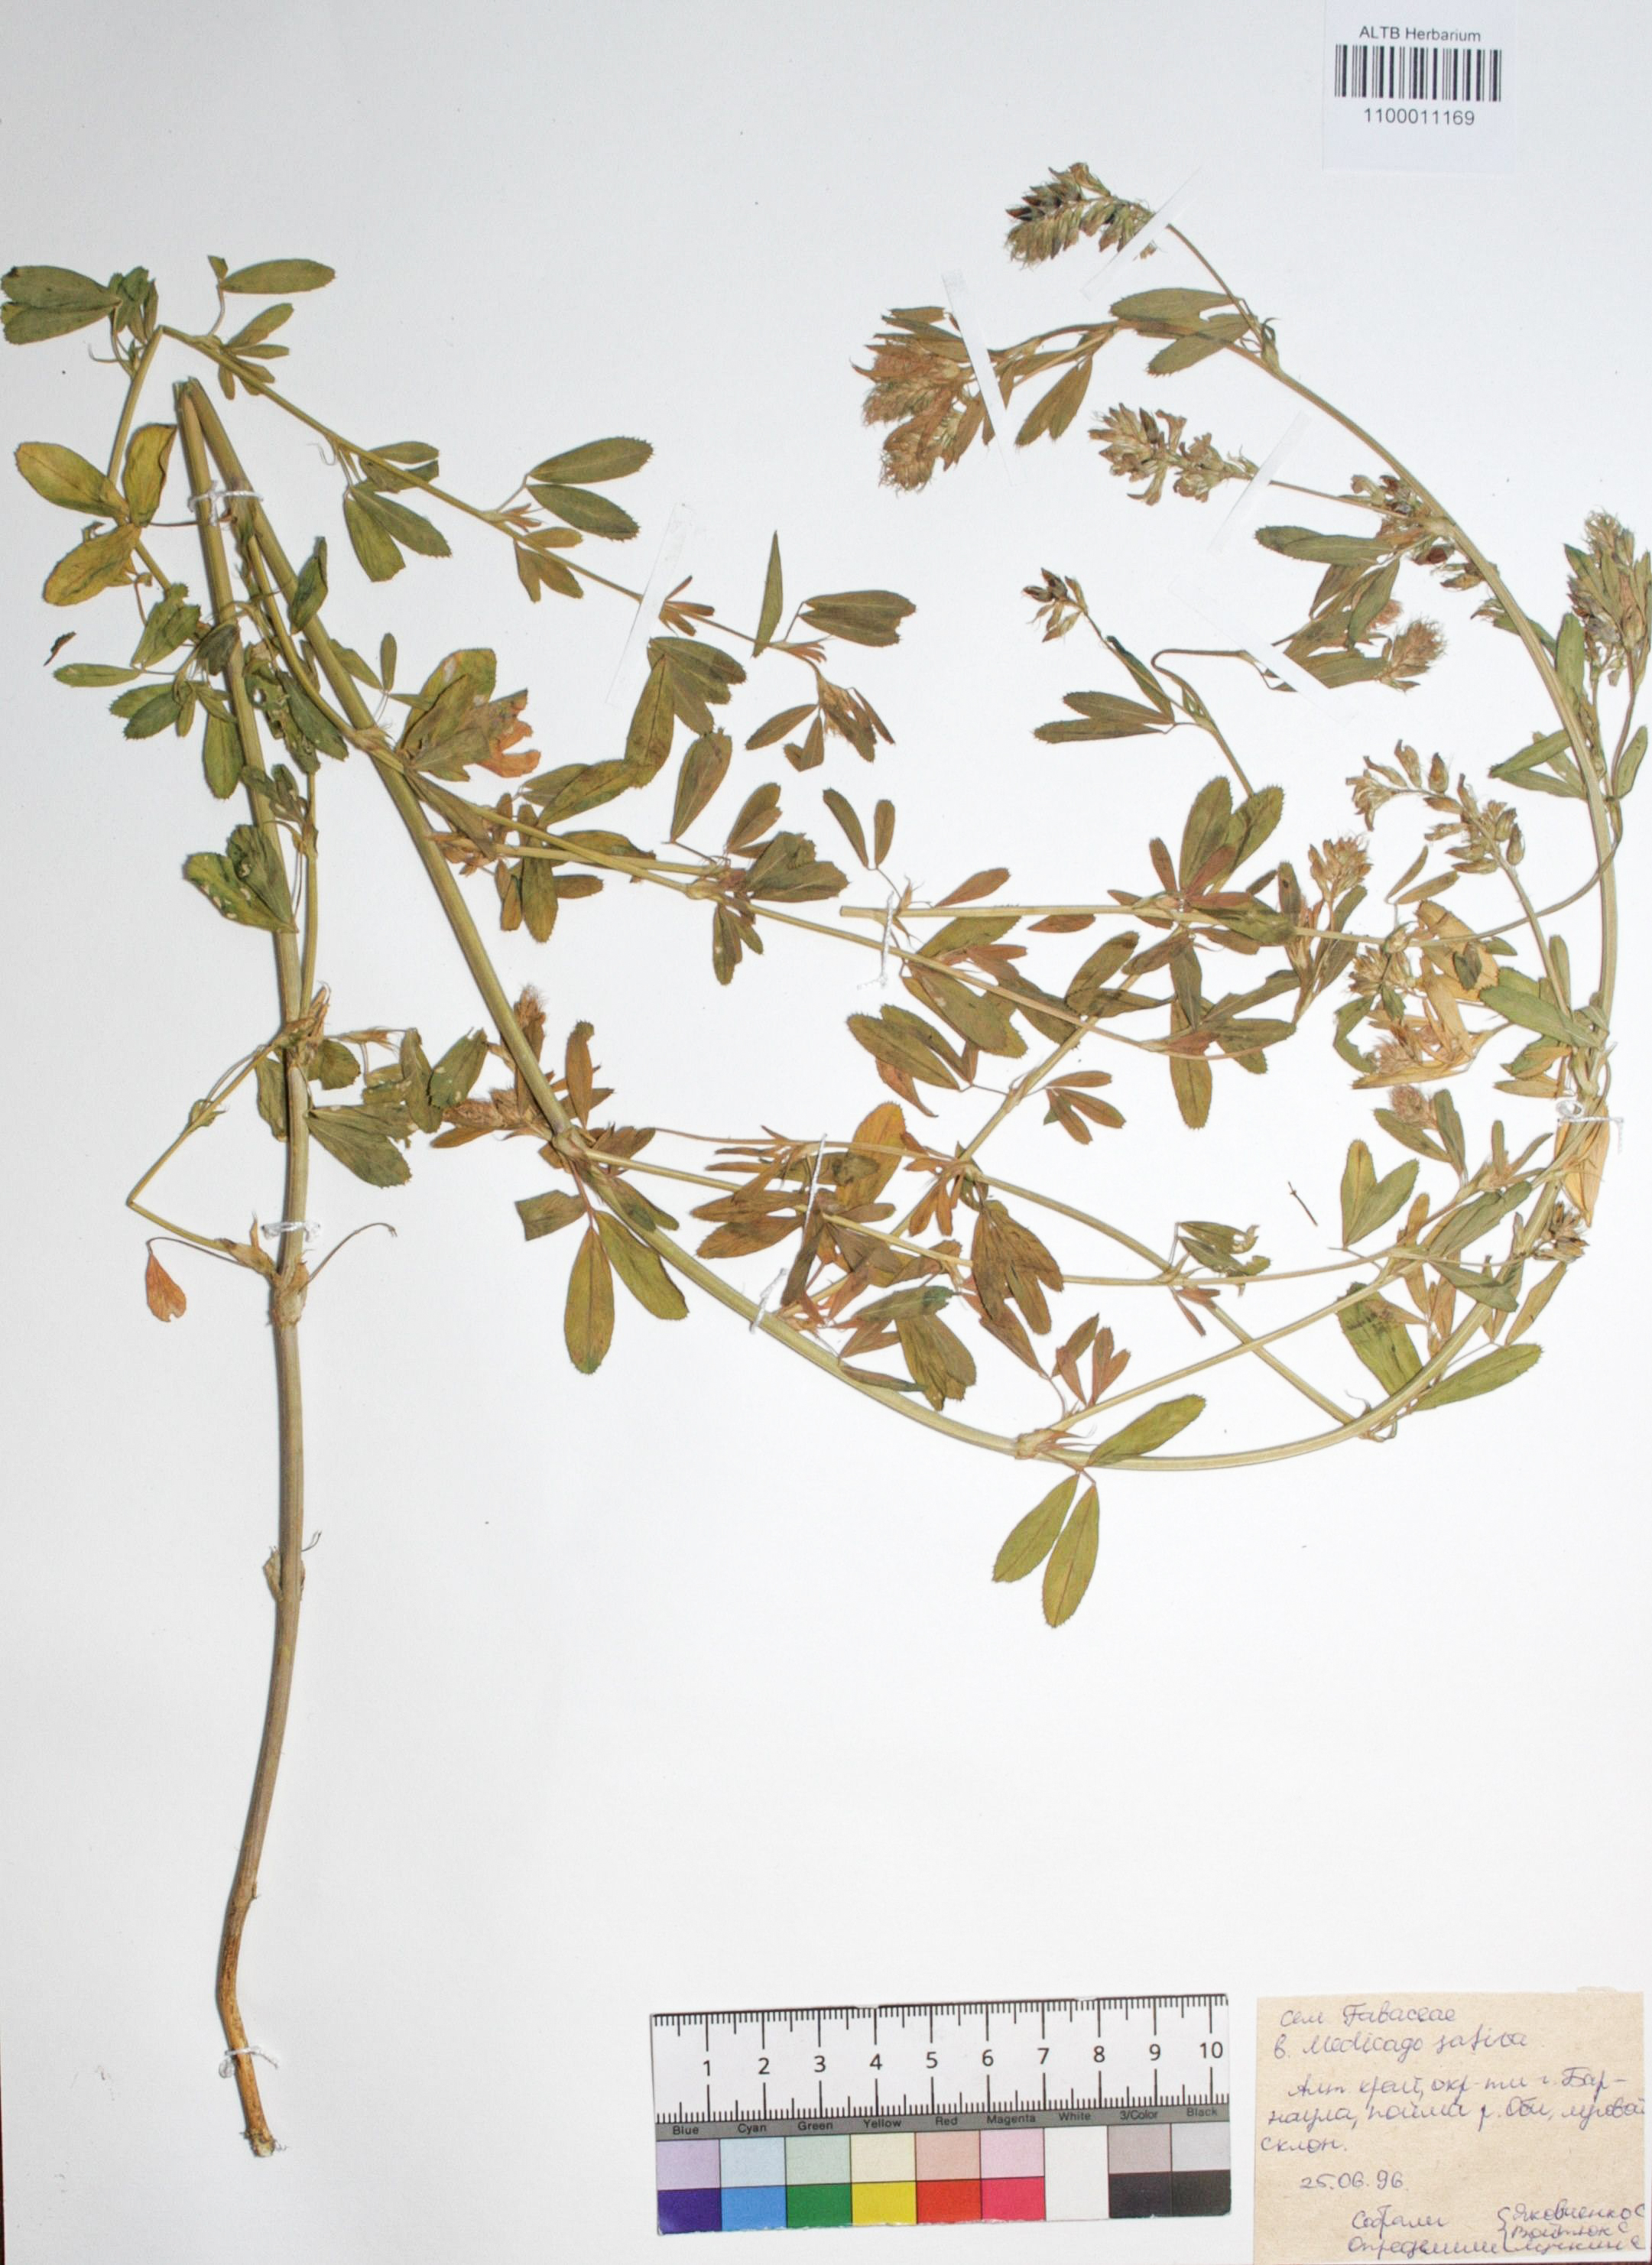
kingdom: Plantae
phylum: Tracheophyta
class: Magnoliopsida
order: Fabales
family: Fabaceae
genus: Medicago
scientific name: Medicago sativa
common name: Alfalfa
